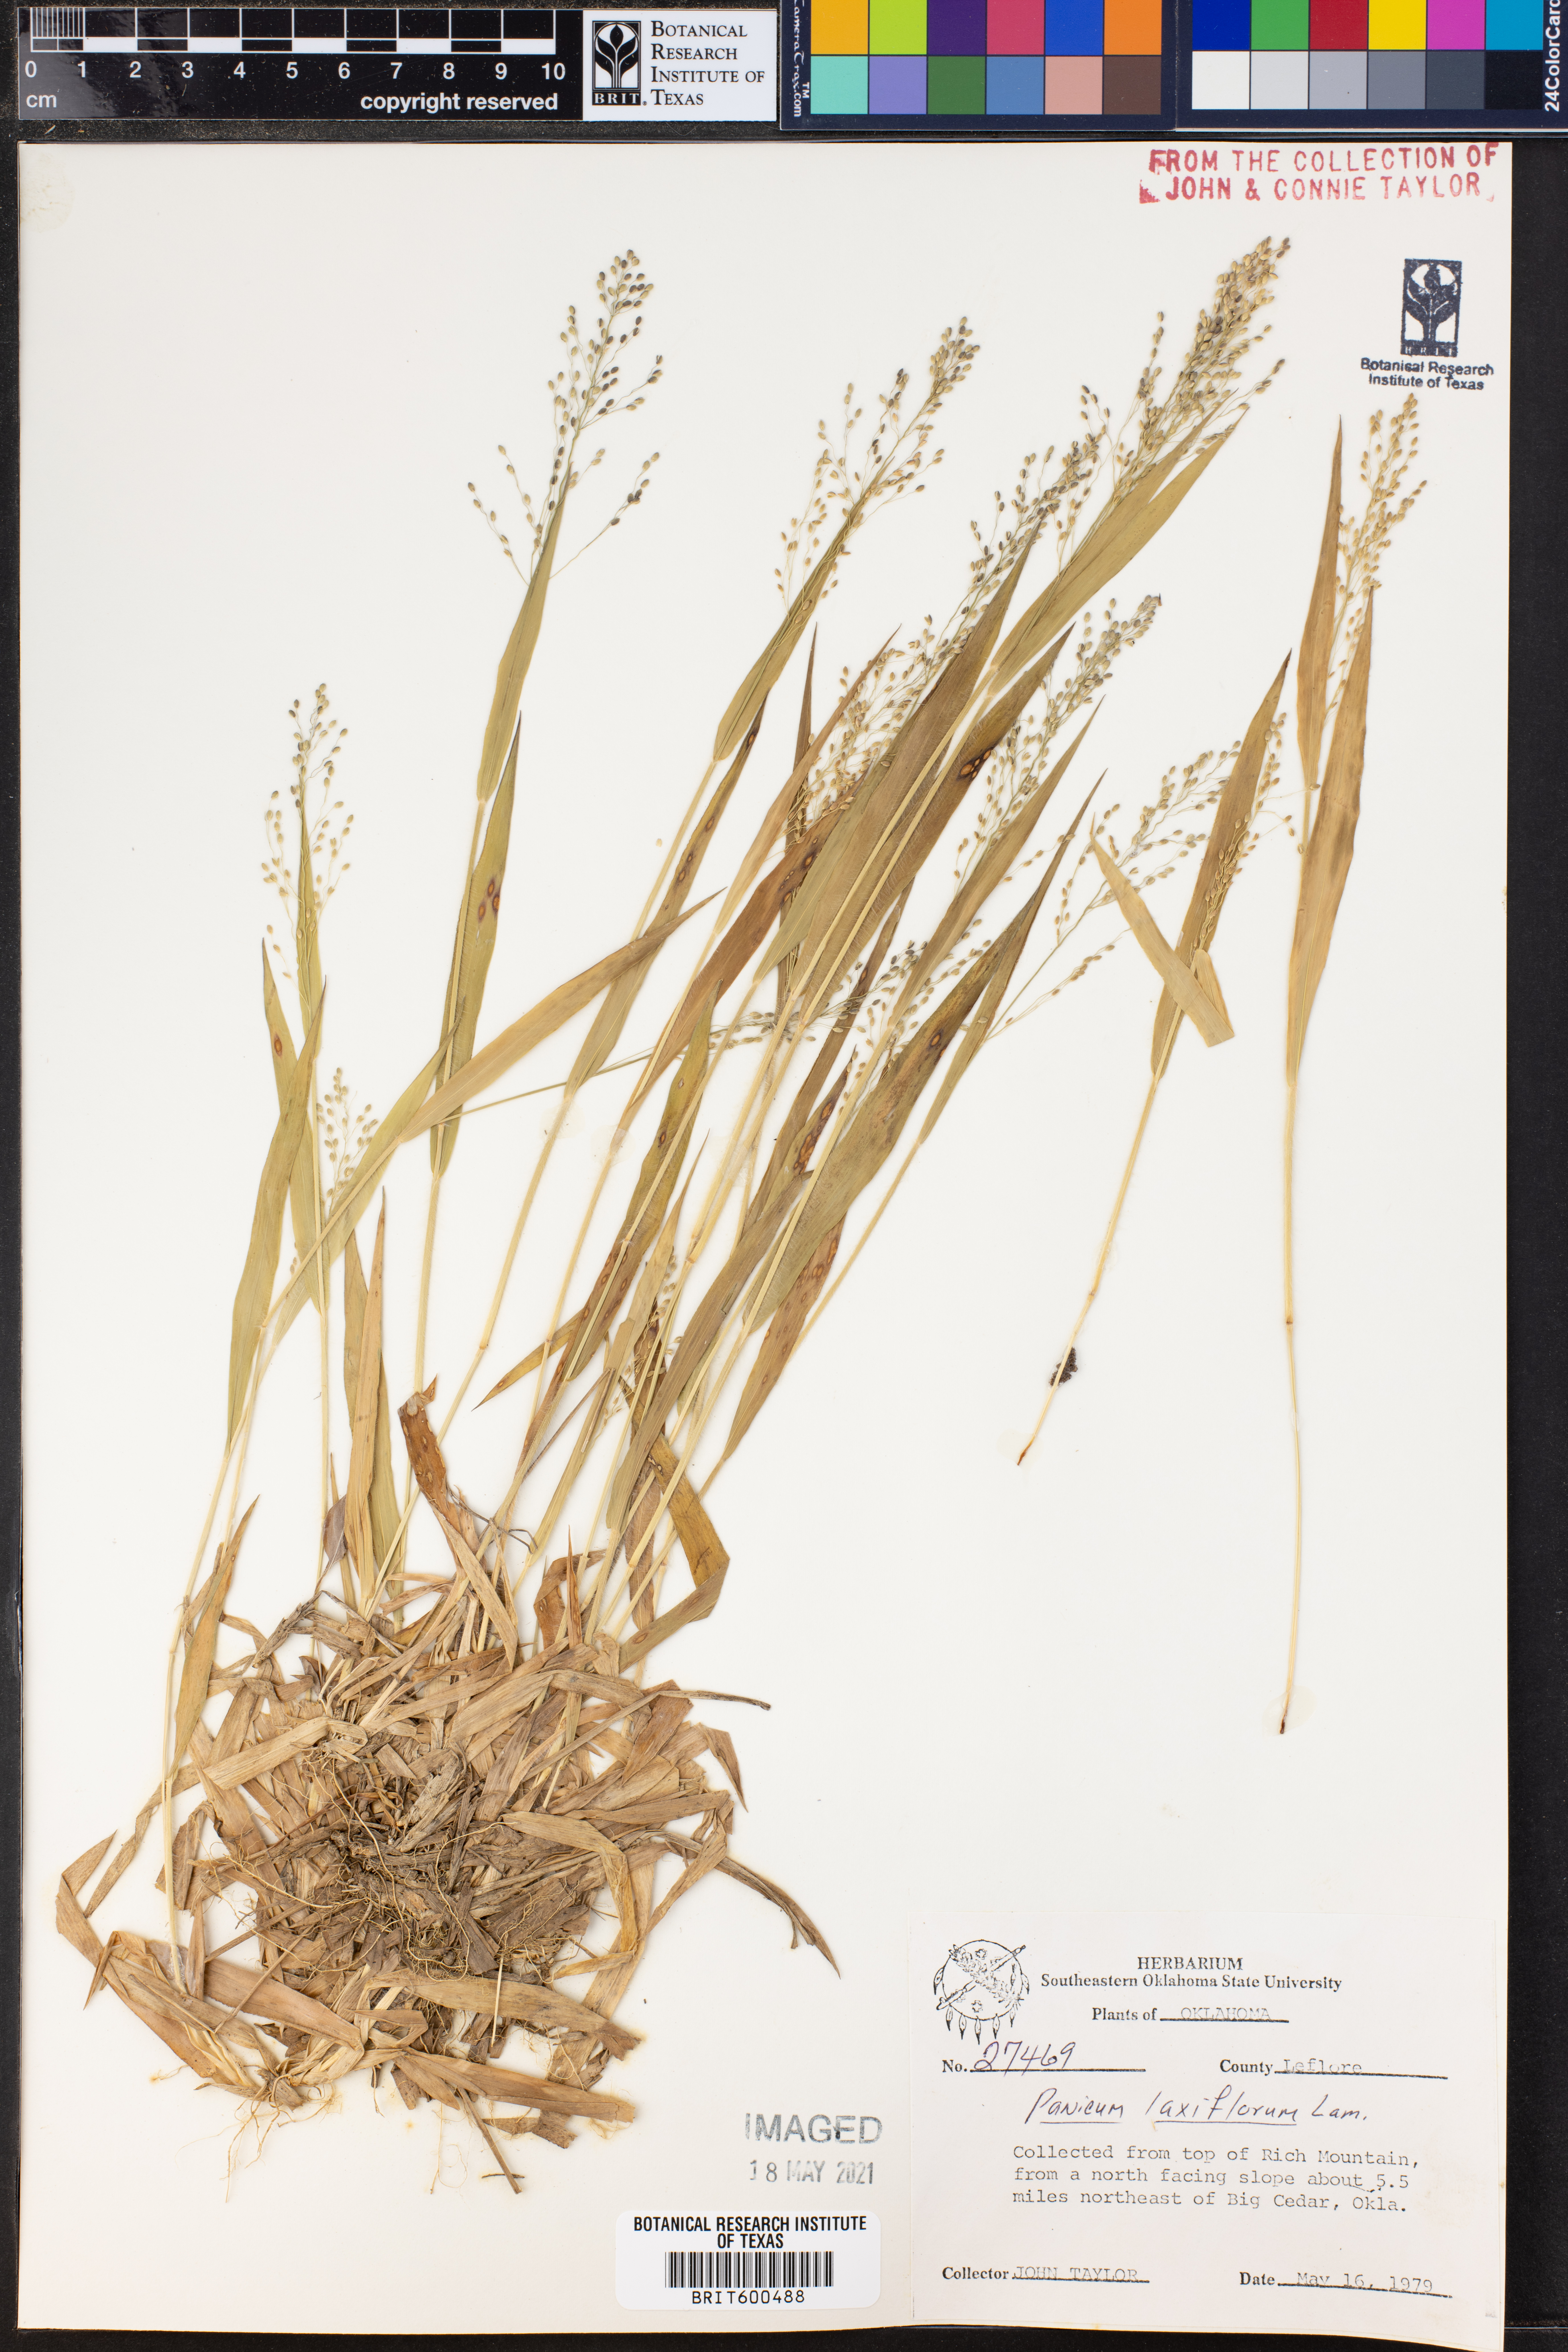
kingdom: Plantae
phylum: Tracheophyta
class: Liliopsida
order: Poales
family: Poaceae
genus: Dichanthelium
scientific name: Dichanthelium laxiflorum
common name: Soft-tuft panic grass
